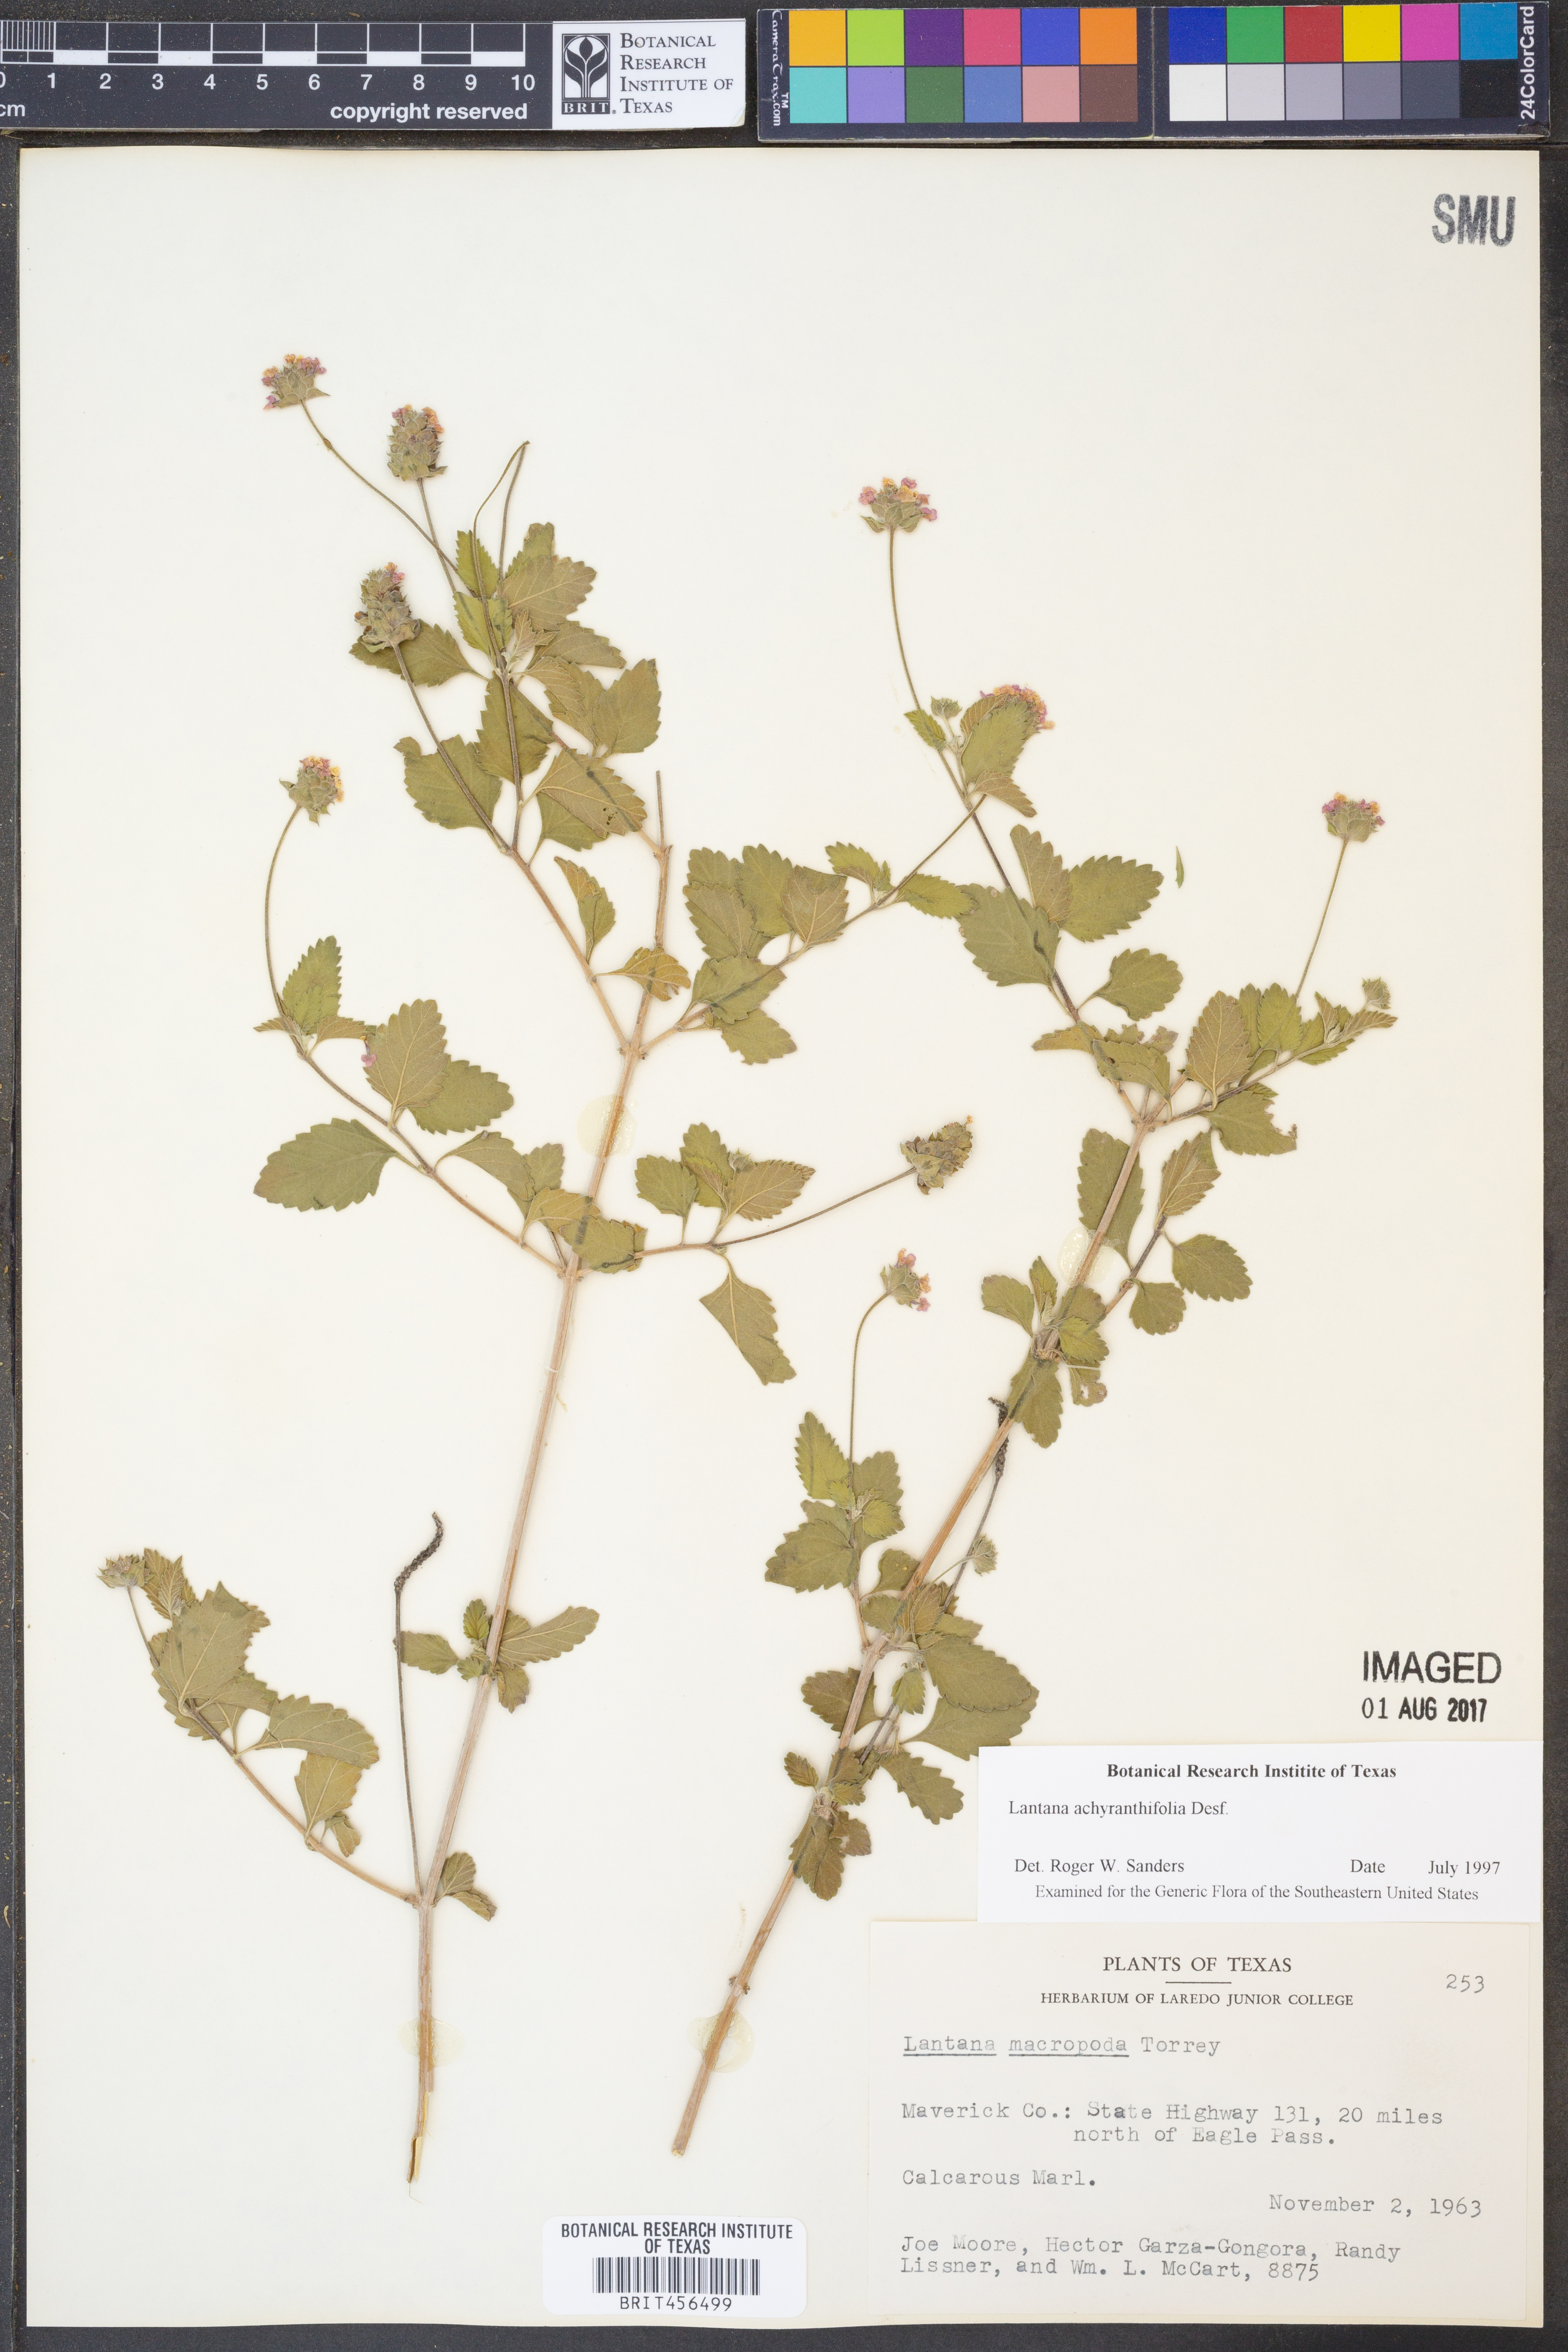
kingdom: Plantae
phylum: Tracheophyta
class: Magnoliopsida
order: Lamiales
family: Verbenaceae
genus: Lantana
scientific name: Lantana achyranthifolia
